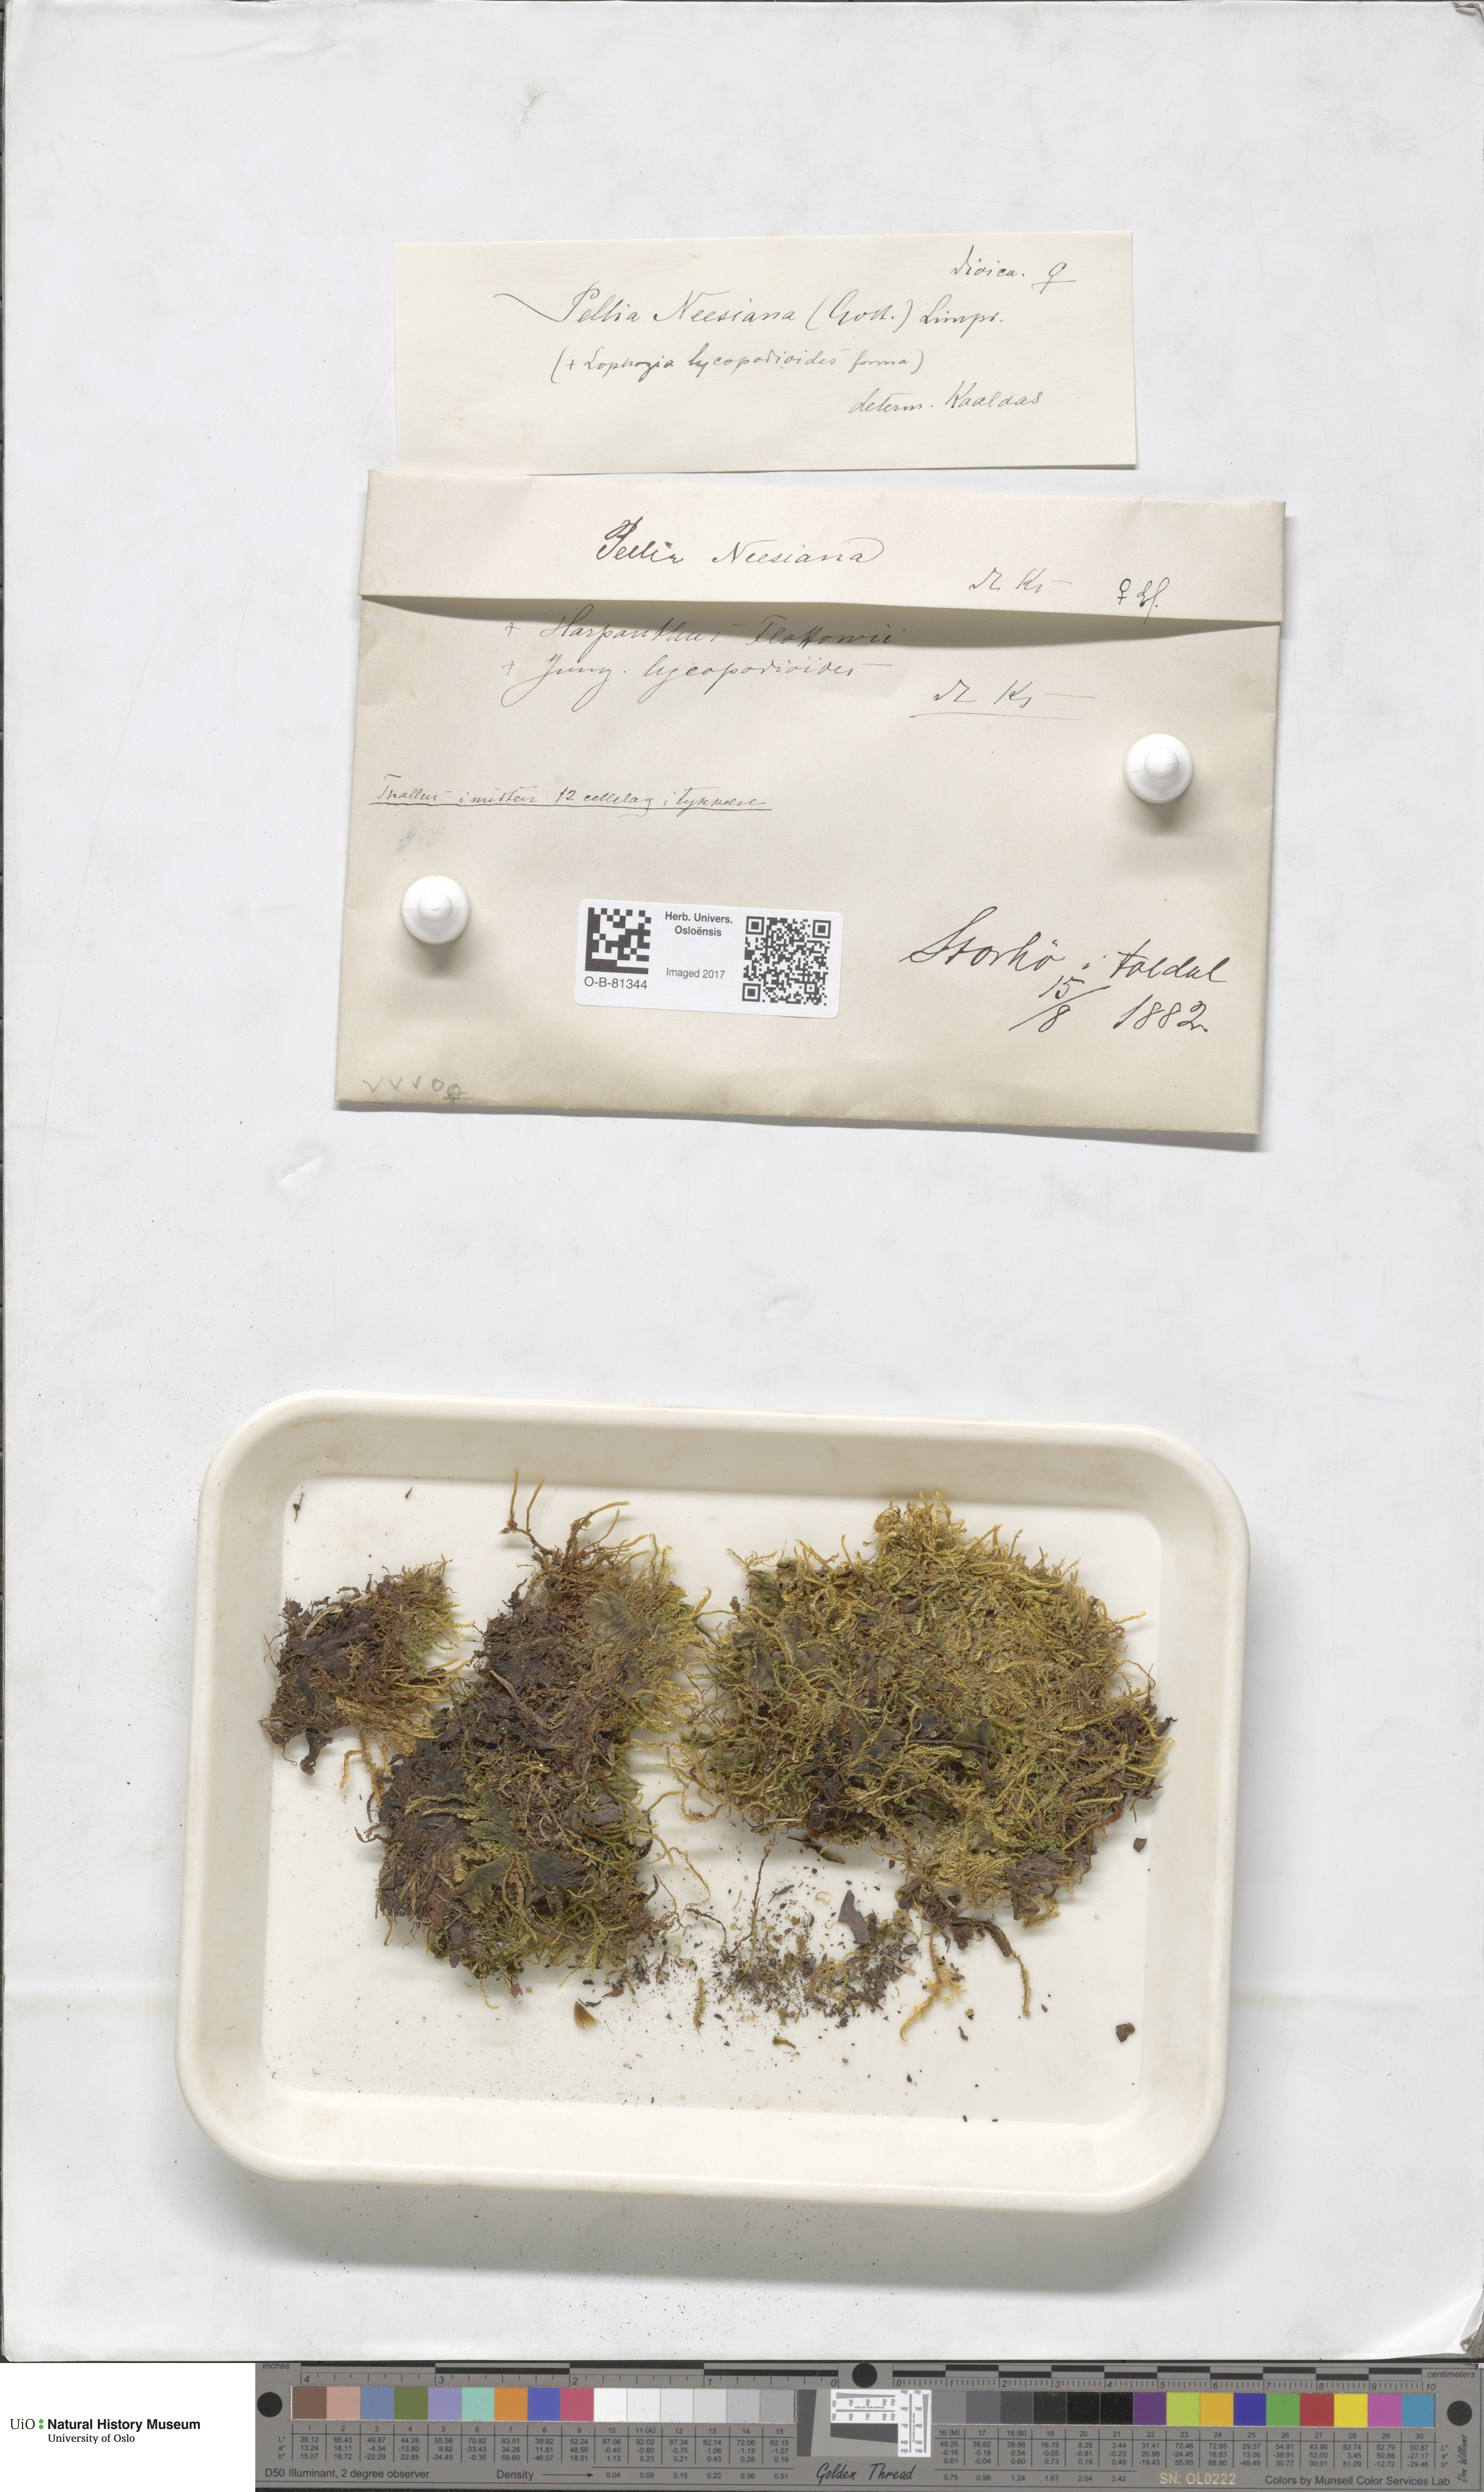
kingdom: Plantae
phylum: Marchantiophyta
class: Jungermanniopsida
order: Pelliales
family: Pelliaceae
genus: Pellia
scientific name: Pellia neesiana
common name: Nees  pellia
